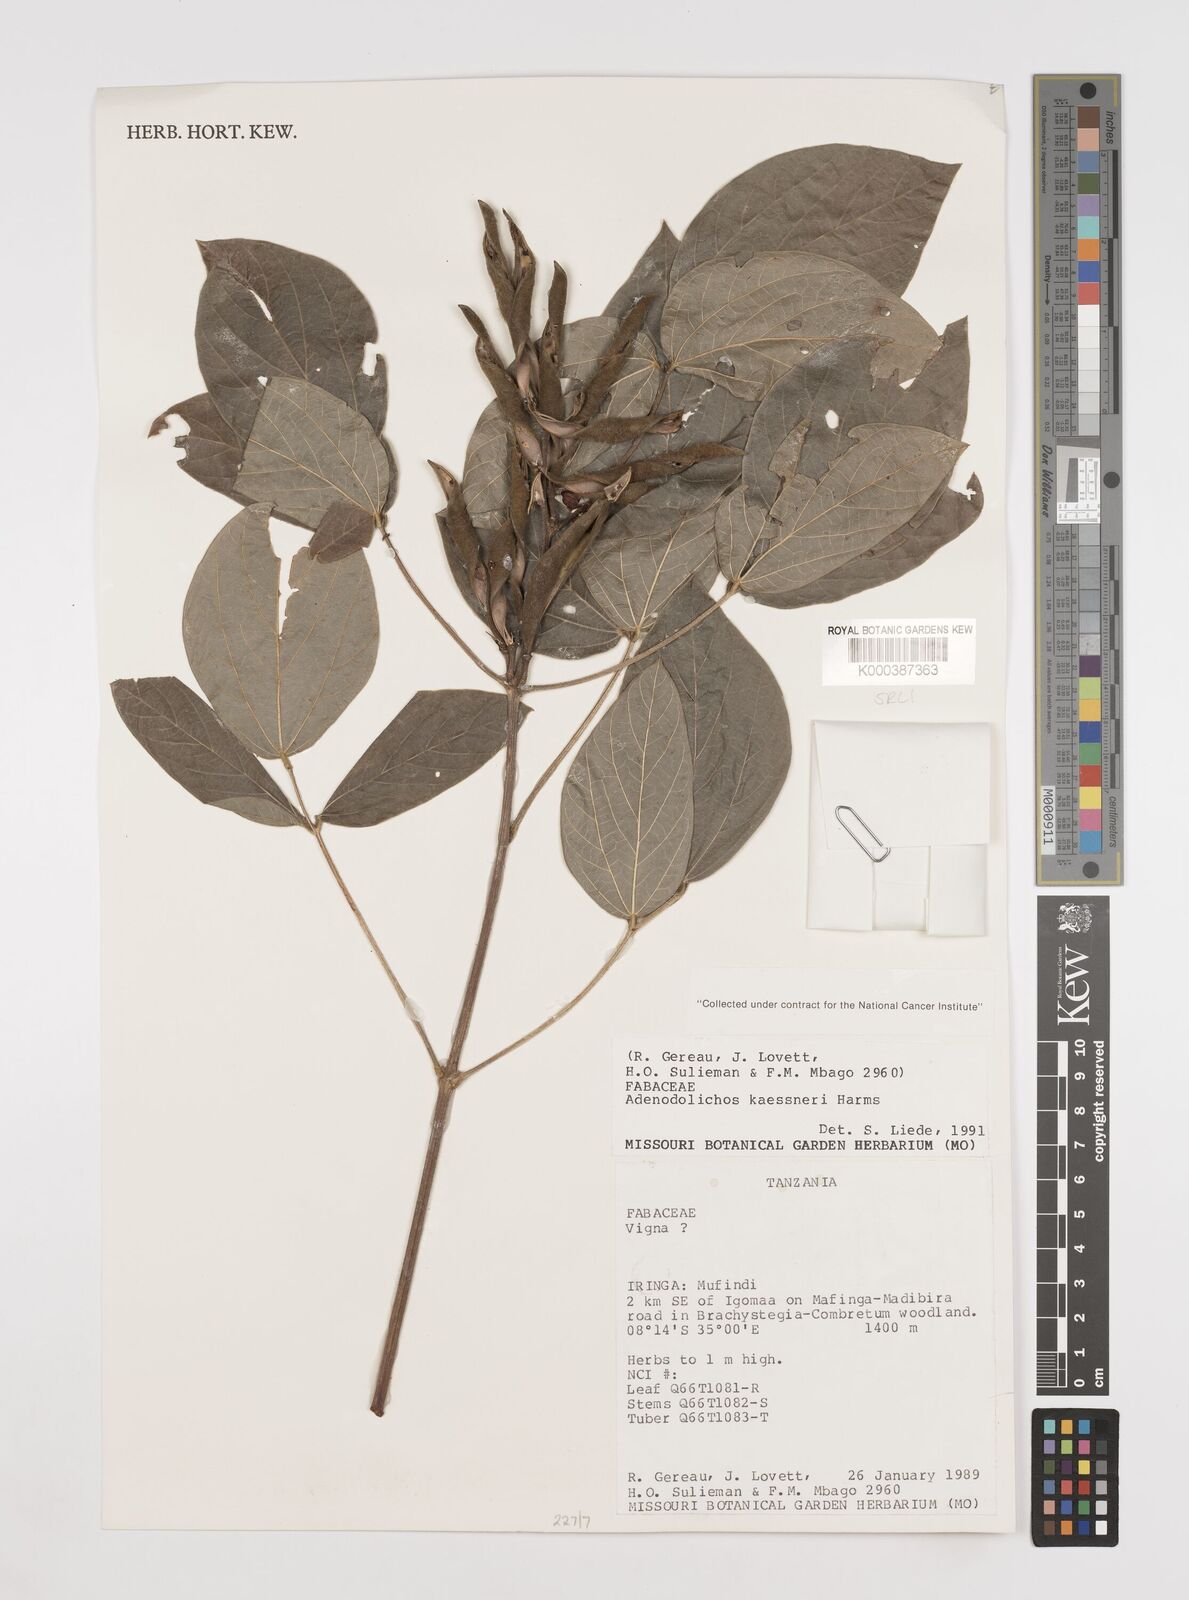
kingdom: Plantae
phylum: Tracheophyta
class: Magnoliopsida
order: Fabales
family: Fabaceae
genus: Adenodolichos
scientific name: Adenodolichos kaessneri
